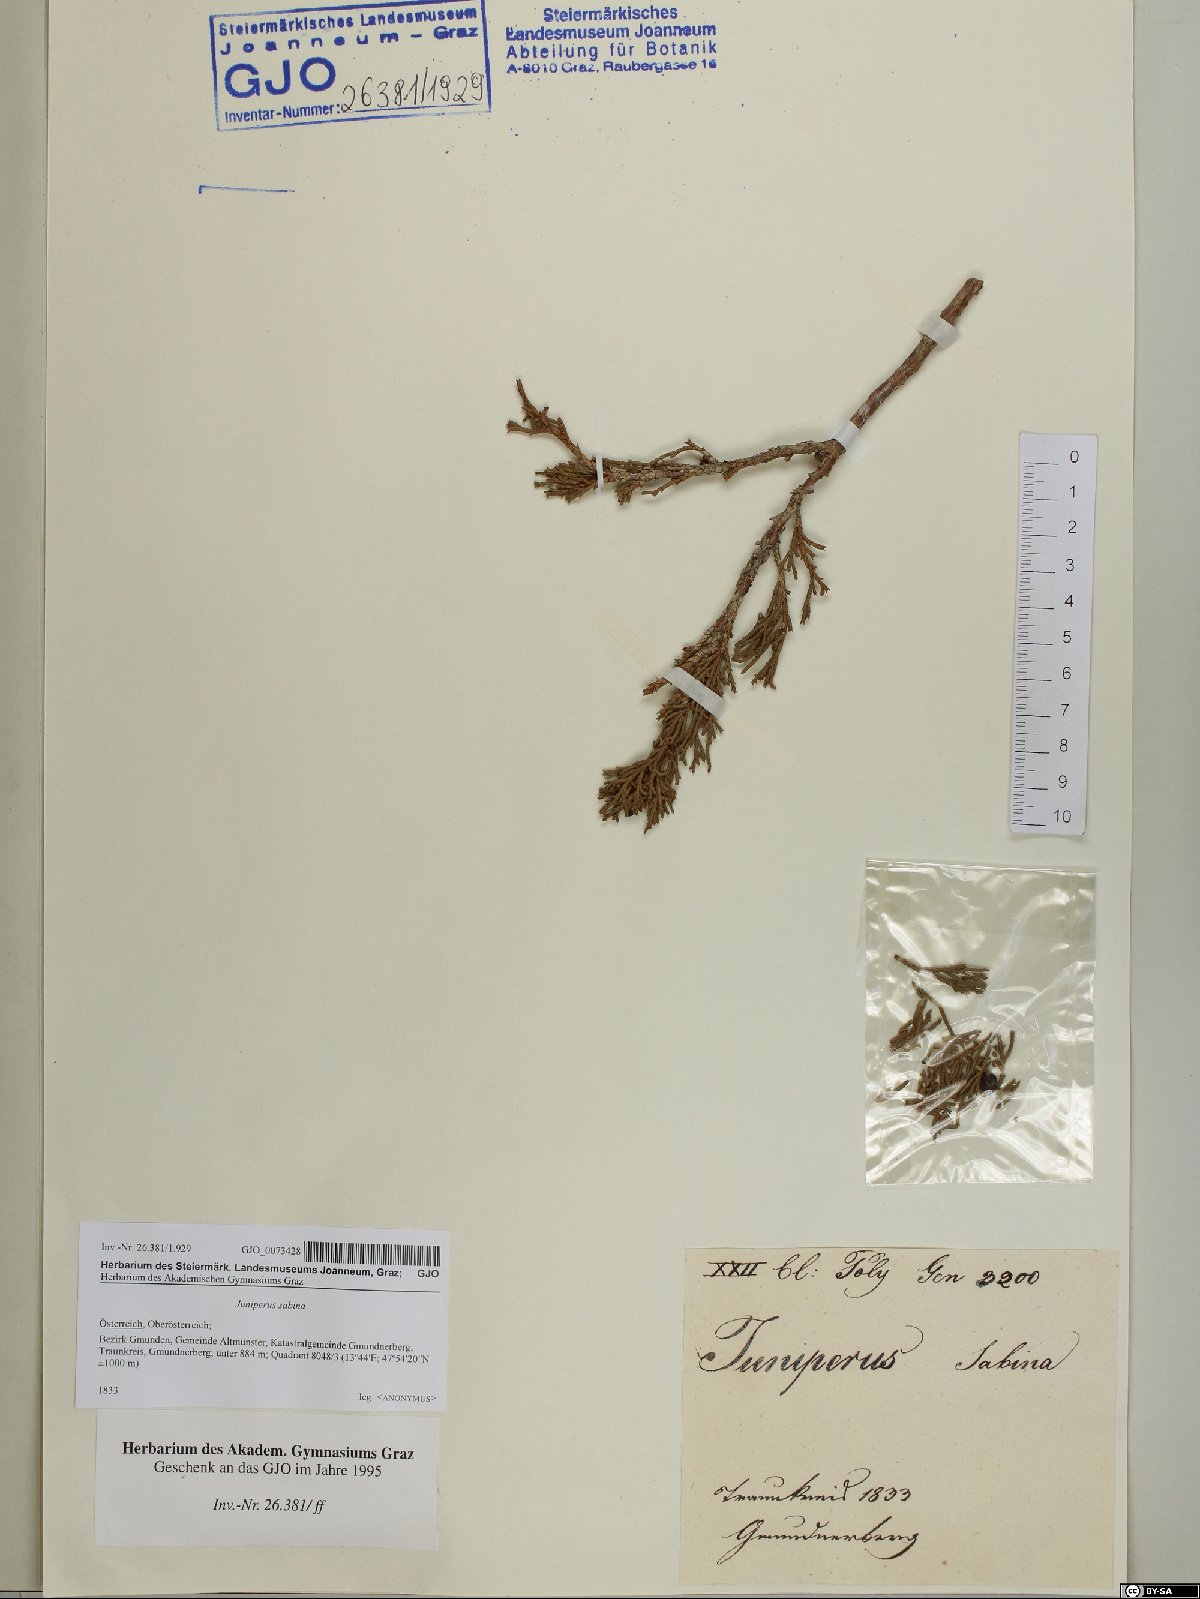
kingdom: Plantae
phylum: Tracheophyta
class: Pinopsida
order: Pinales
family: Cupressaceae
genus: Juniperus
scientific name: Juniperus sabina
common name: Savin
